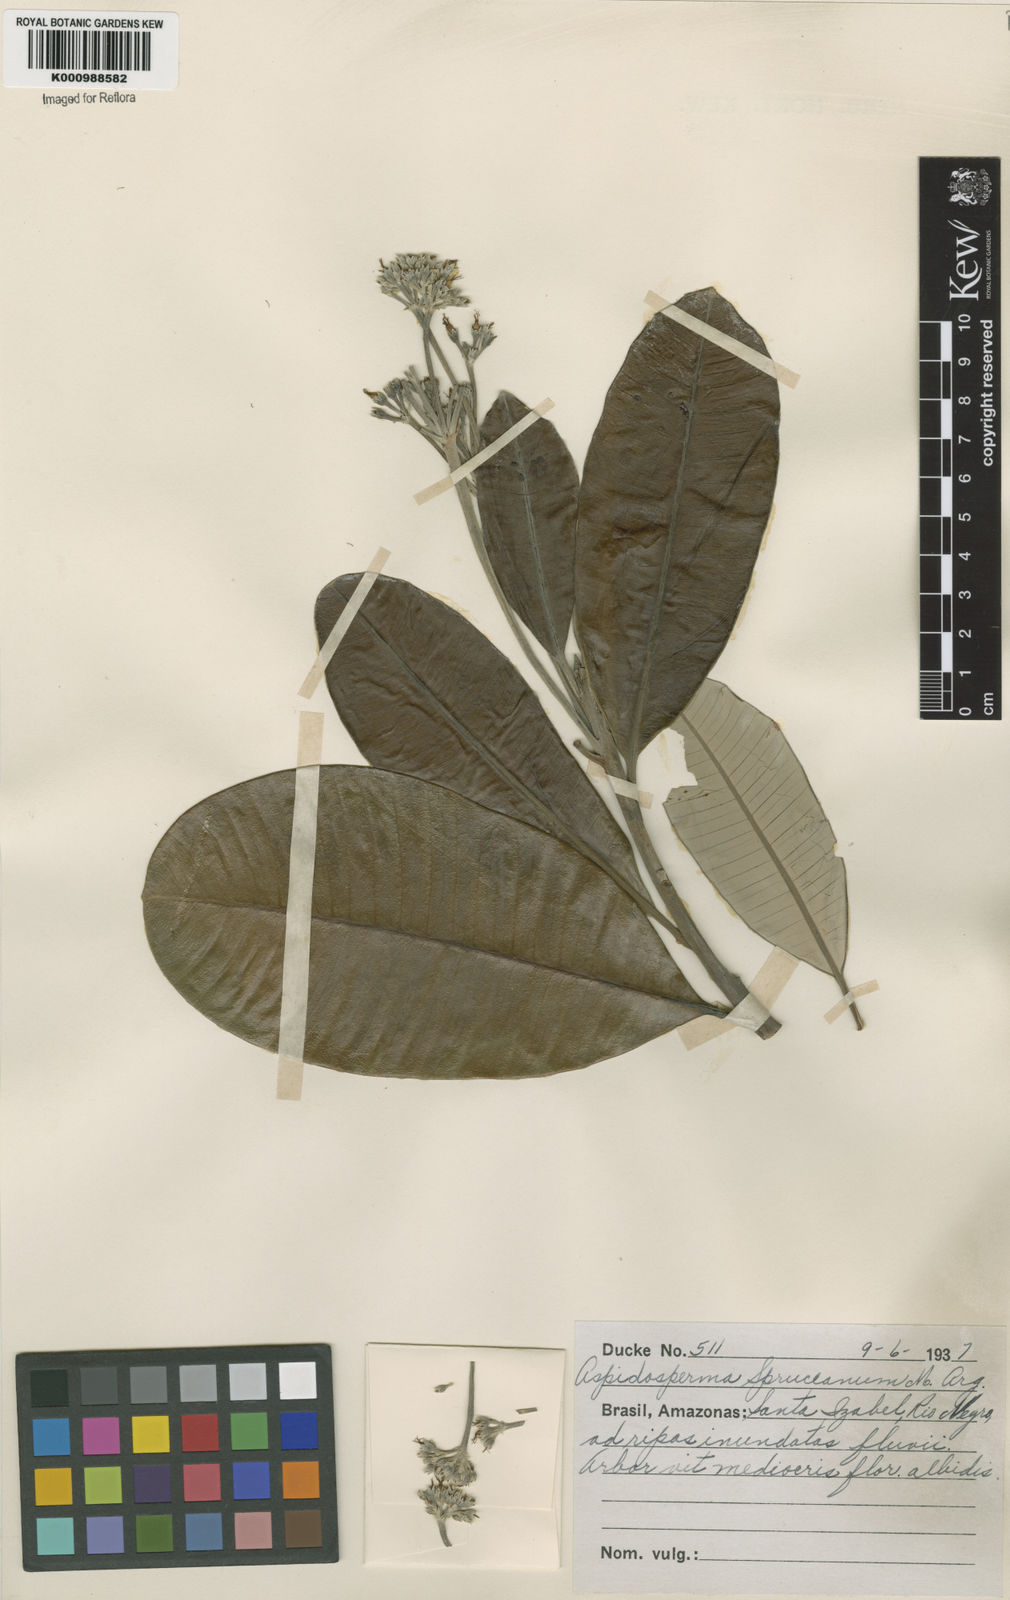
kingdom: Plantae
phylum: Tracheophyta
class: Magnoliopsida
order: Gentianales
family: Apocynaceae
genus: Aspidosperma
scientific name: Aspidosperma
